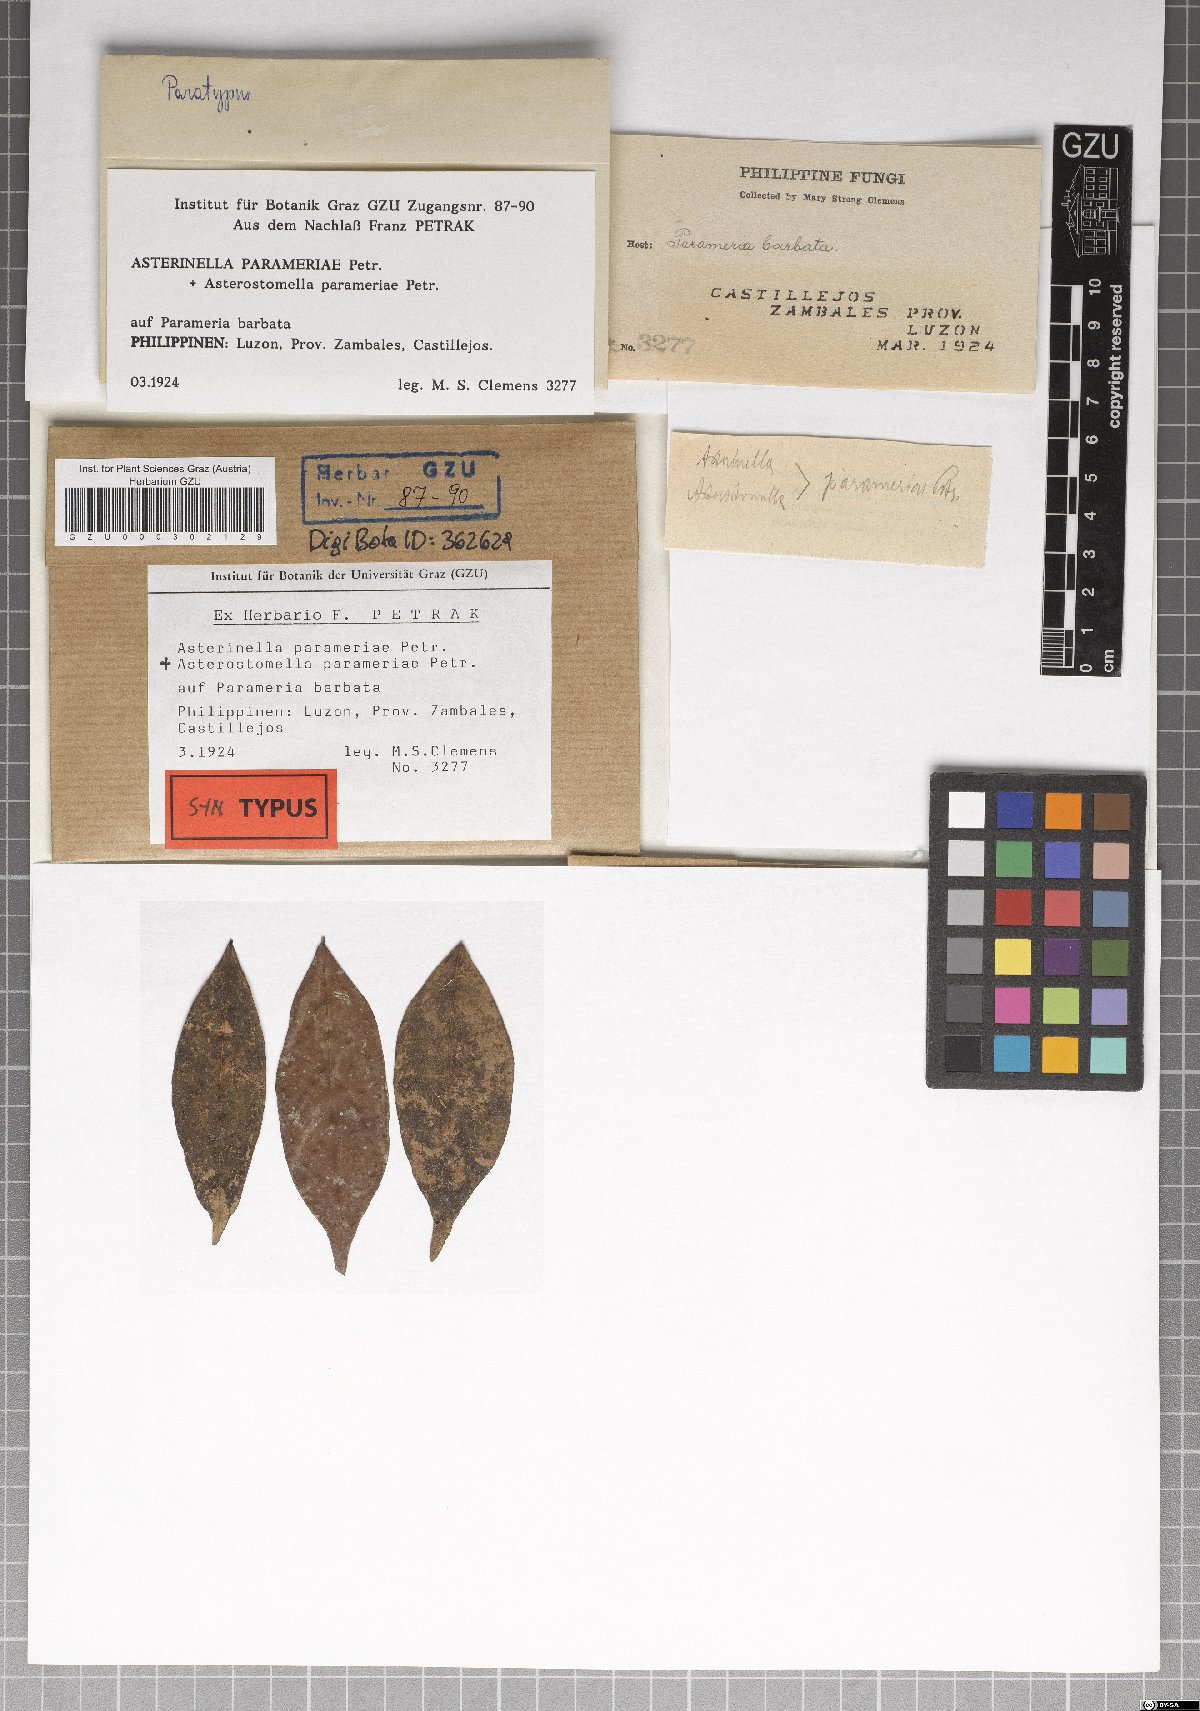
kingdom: Fungi
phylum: Ascomycota
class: Dothideomycetes
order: Microthyriales
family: Microthyriaceae
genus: Asterinella
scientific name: Asterinella parameriae
